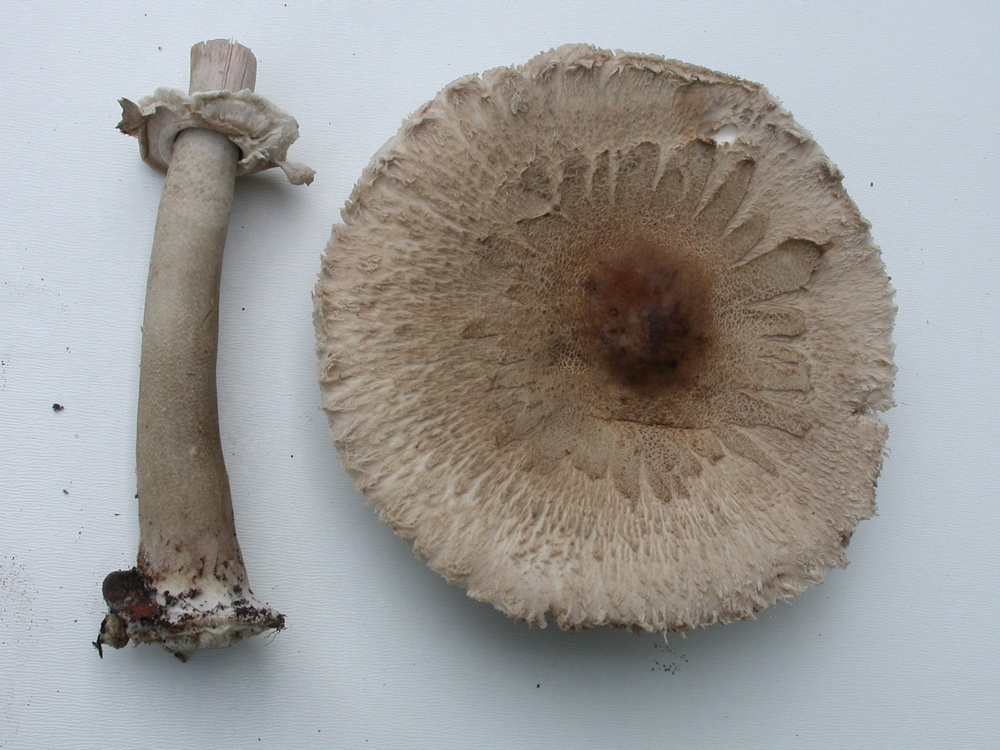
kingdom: Fungi
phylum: Basidiomycota
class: Agaricomycetes
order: Agaricales
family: Agaricaceae
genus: Macrolepiota
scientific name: Macrolepiota mastoidea
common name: puklet kæmpeparasolhat
